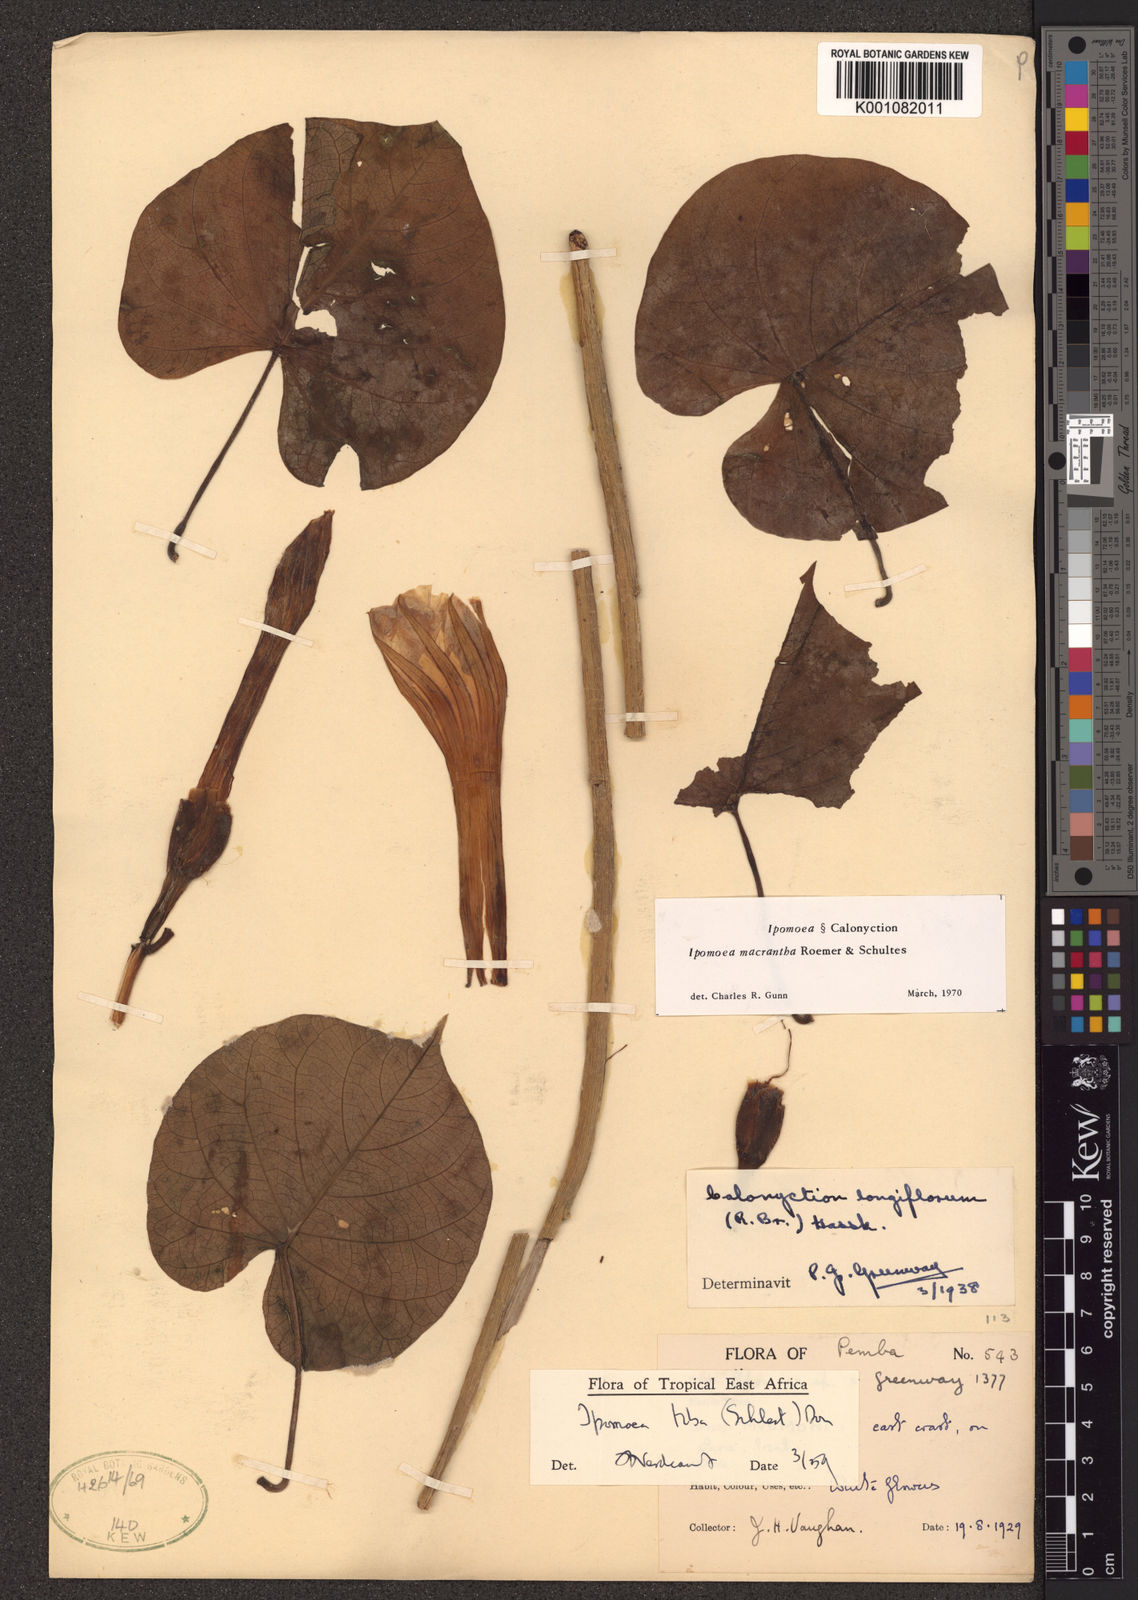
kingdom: Plantae
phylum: Tracheophyta
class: Magnoliopsida
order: Solanales
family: Convolvulaceae
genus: Ipomoea
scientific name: Ipomoea violacea
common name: Beach moonflower
